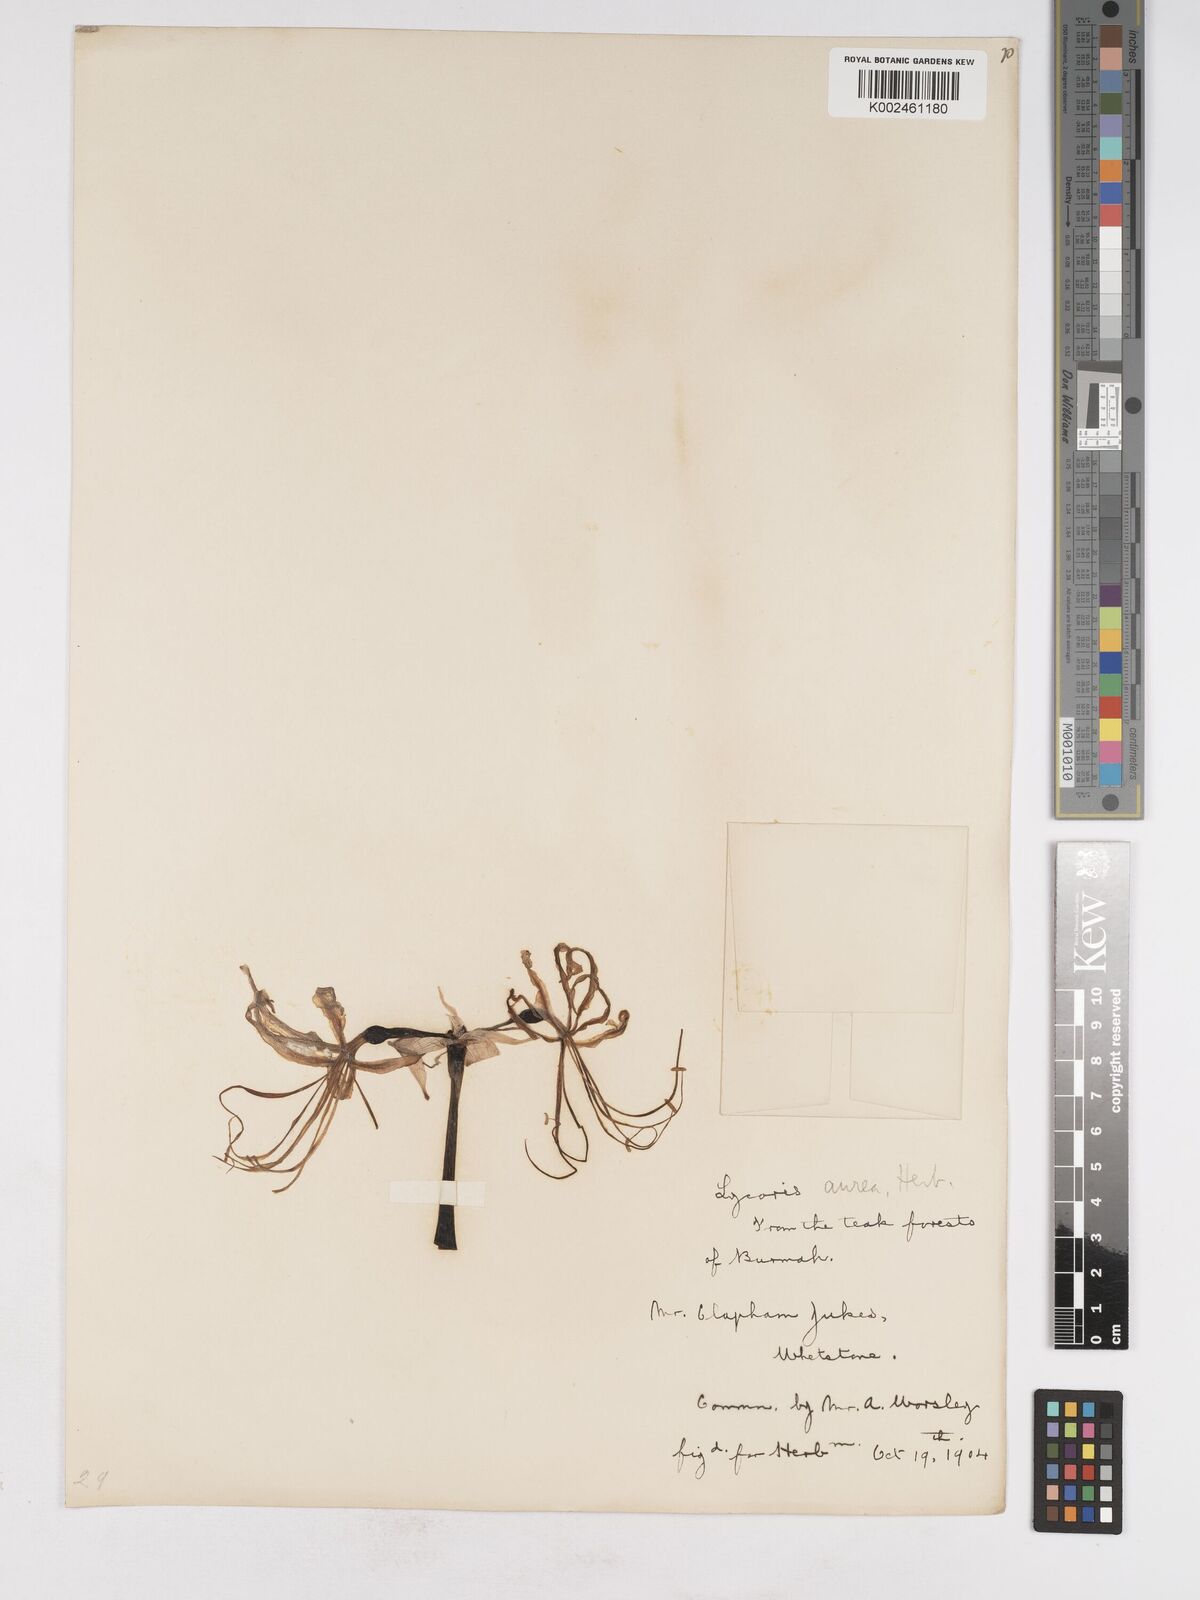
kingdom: Plantae
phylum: Tracheophyta
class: Liliopsida
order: Asparagales
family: Amaryllidaceae
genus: Lycoris
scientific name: Lycoris aurea
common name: Golden hurricane-lily
